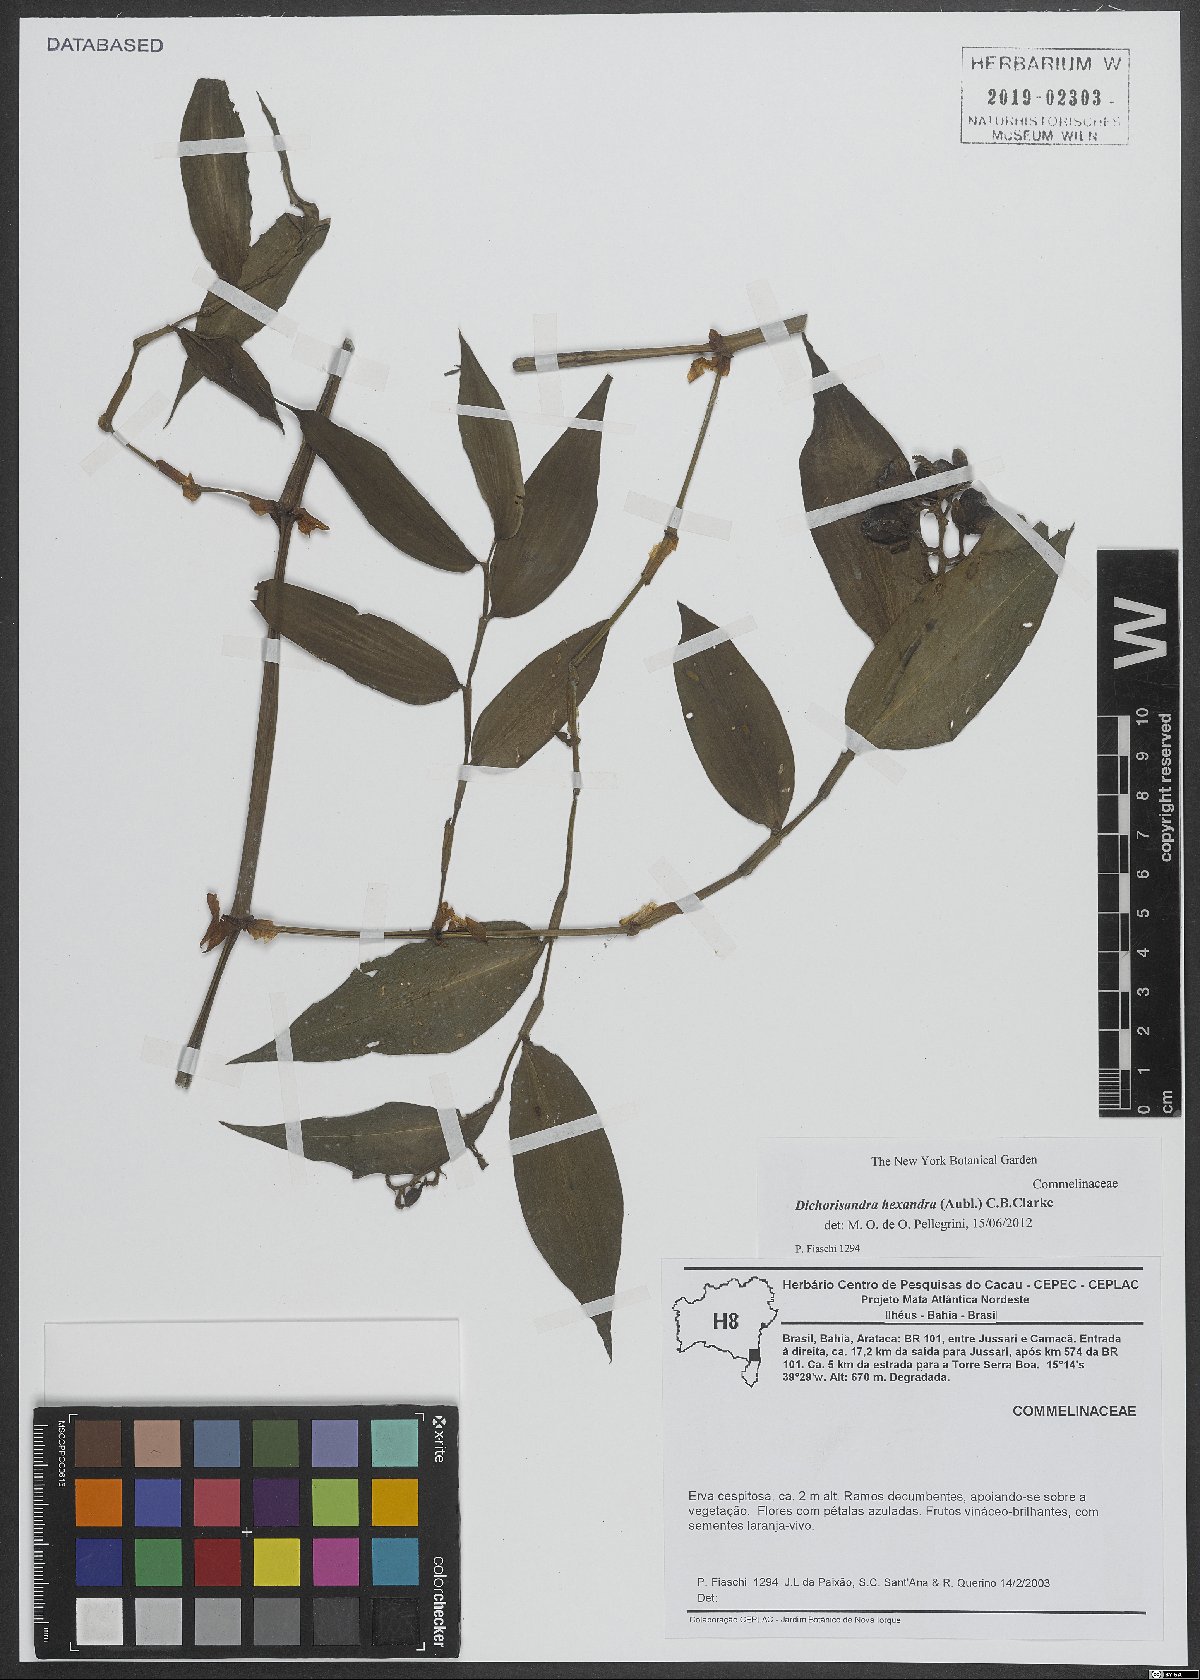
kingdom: Plantae
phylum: Tracheophyta
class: Liliopsida
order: Commelinales
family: Commelinaceae
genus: Dichorisandra
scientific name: Dichorisandra hexandra
